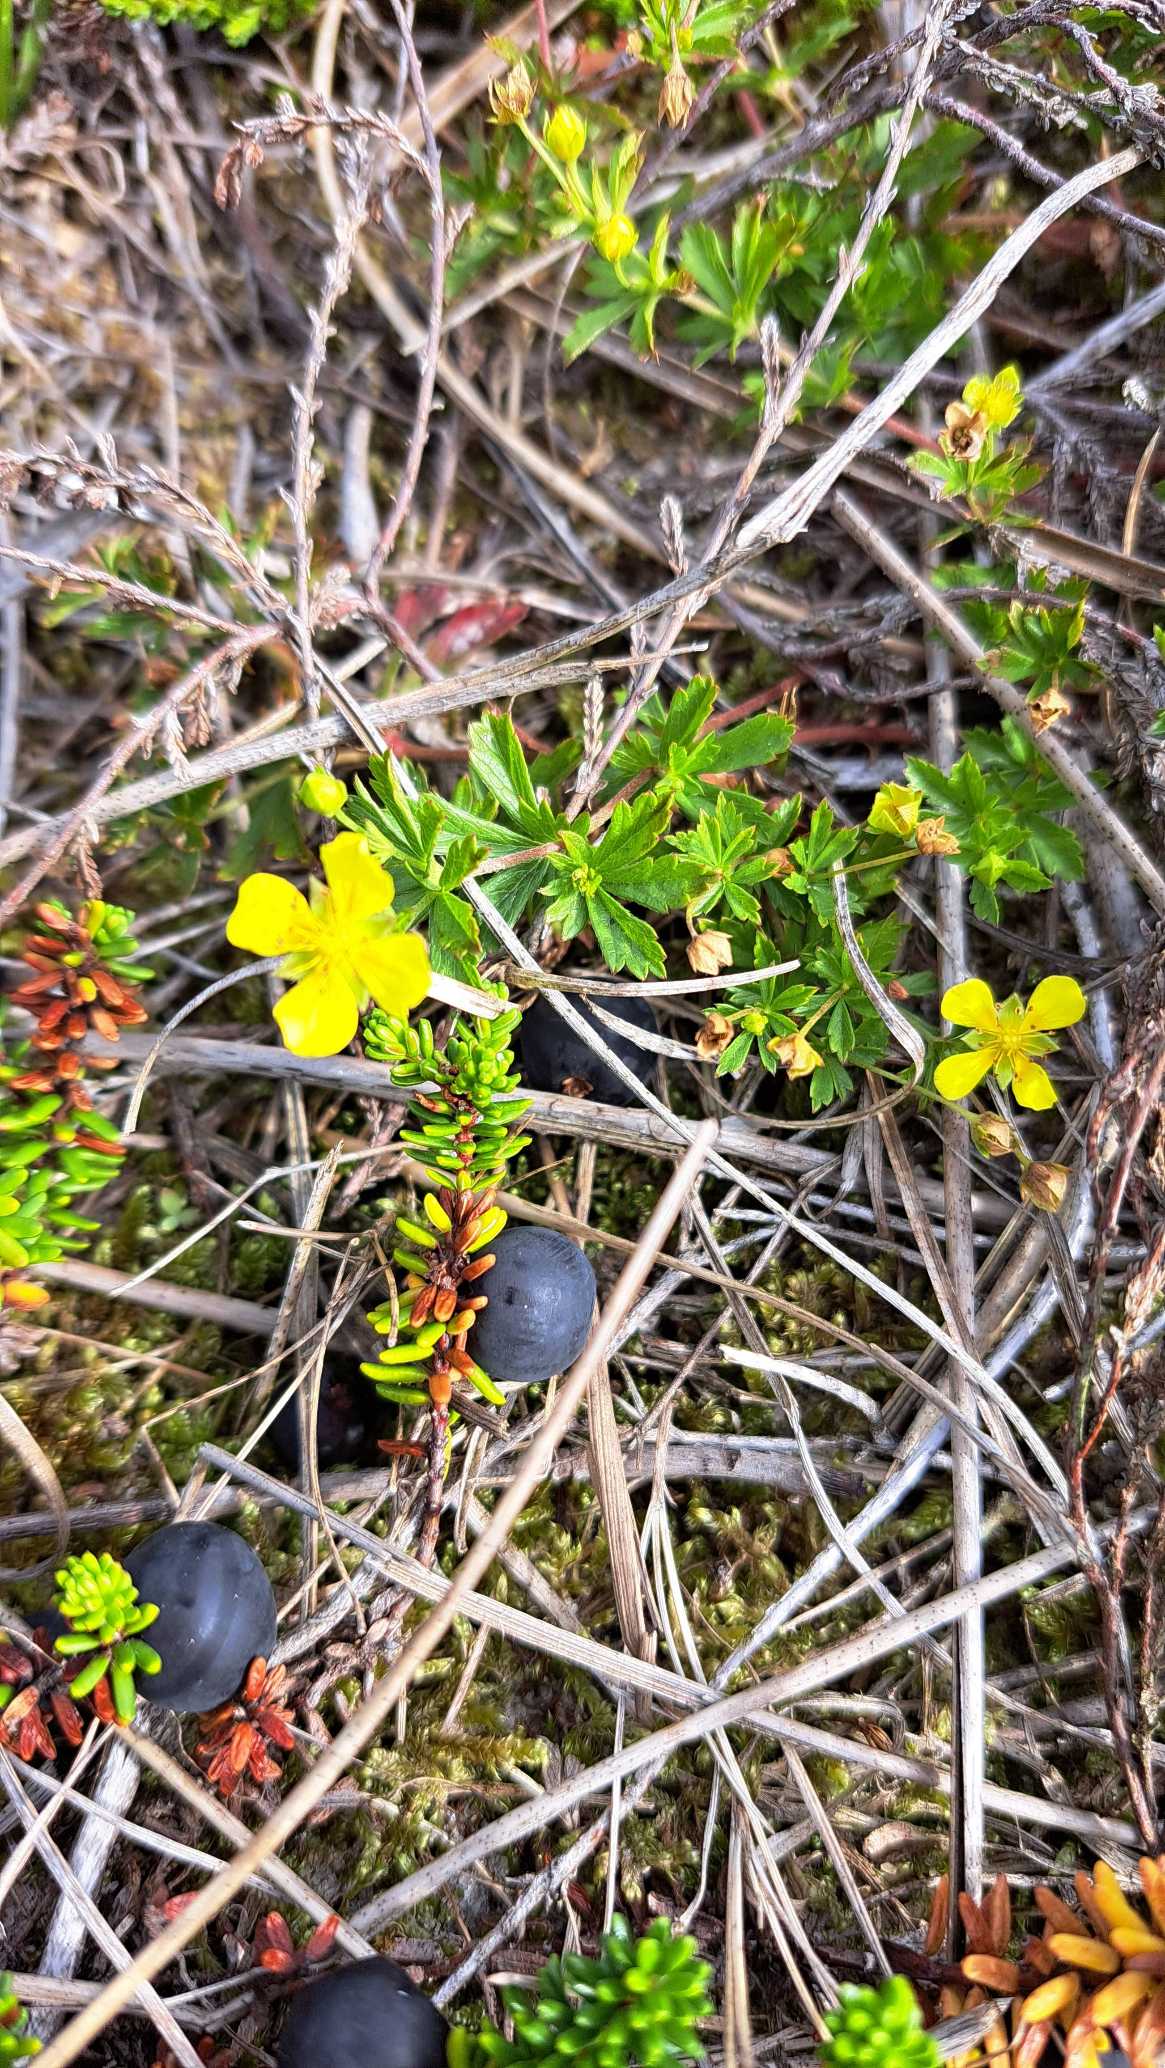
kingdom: Plantae
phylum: Tracheophyta
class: Magnoliopsida
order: Rosales
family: Rosaceae
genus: Potentilla
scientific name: Potentilla erecta
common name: Tormentil
